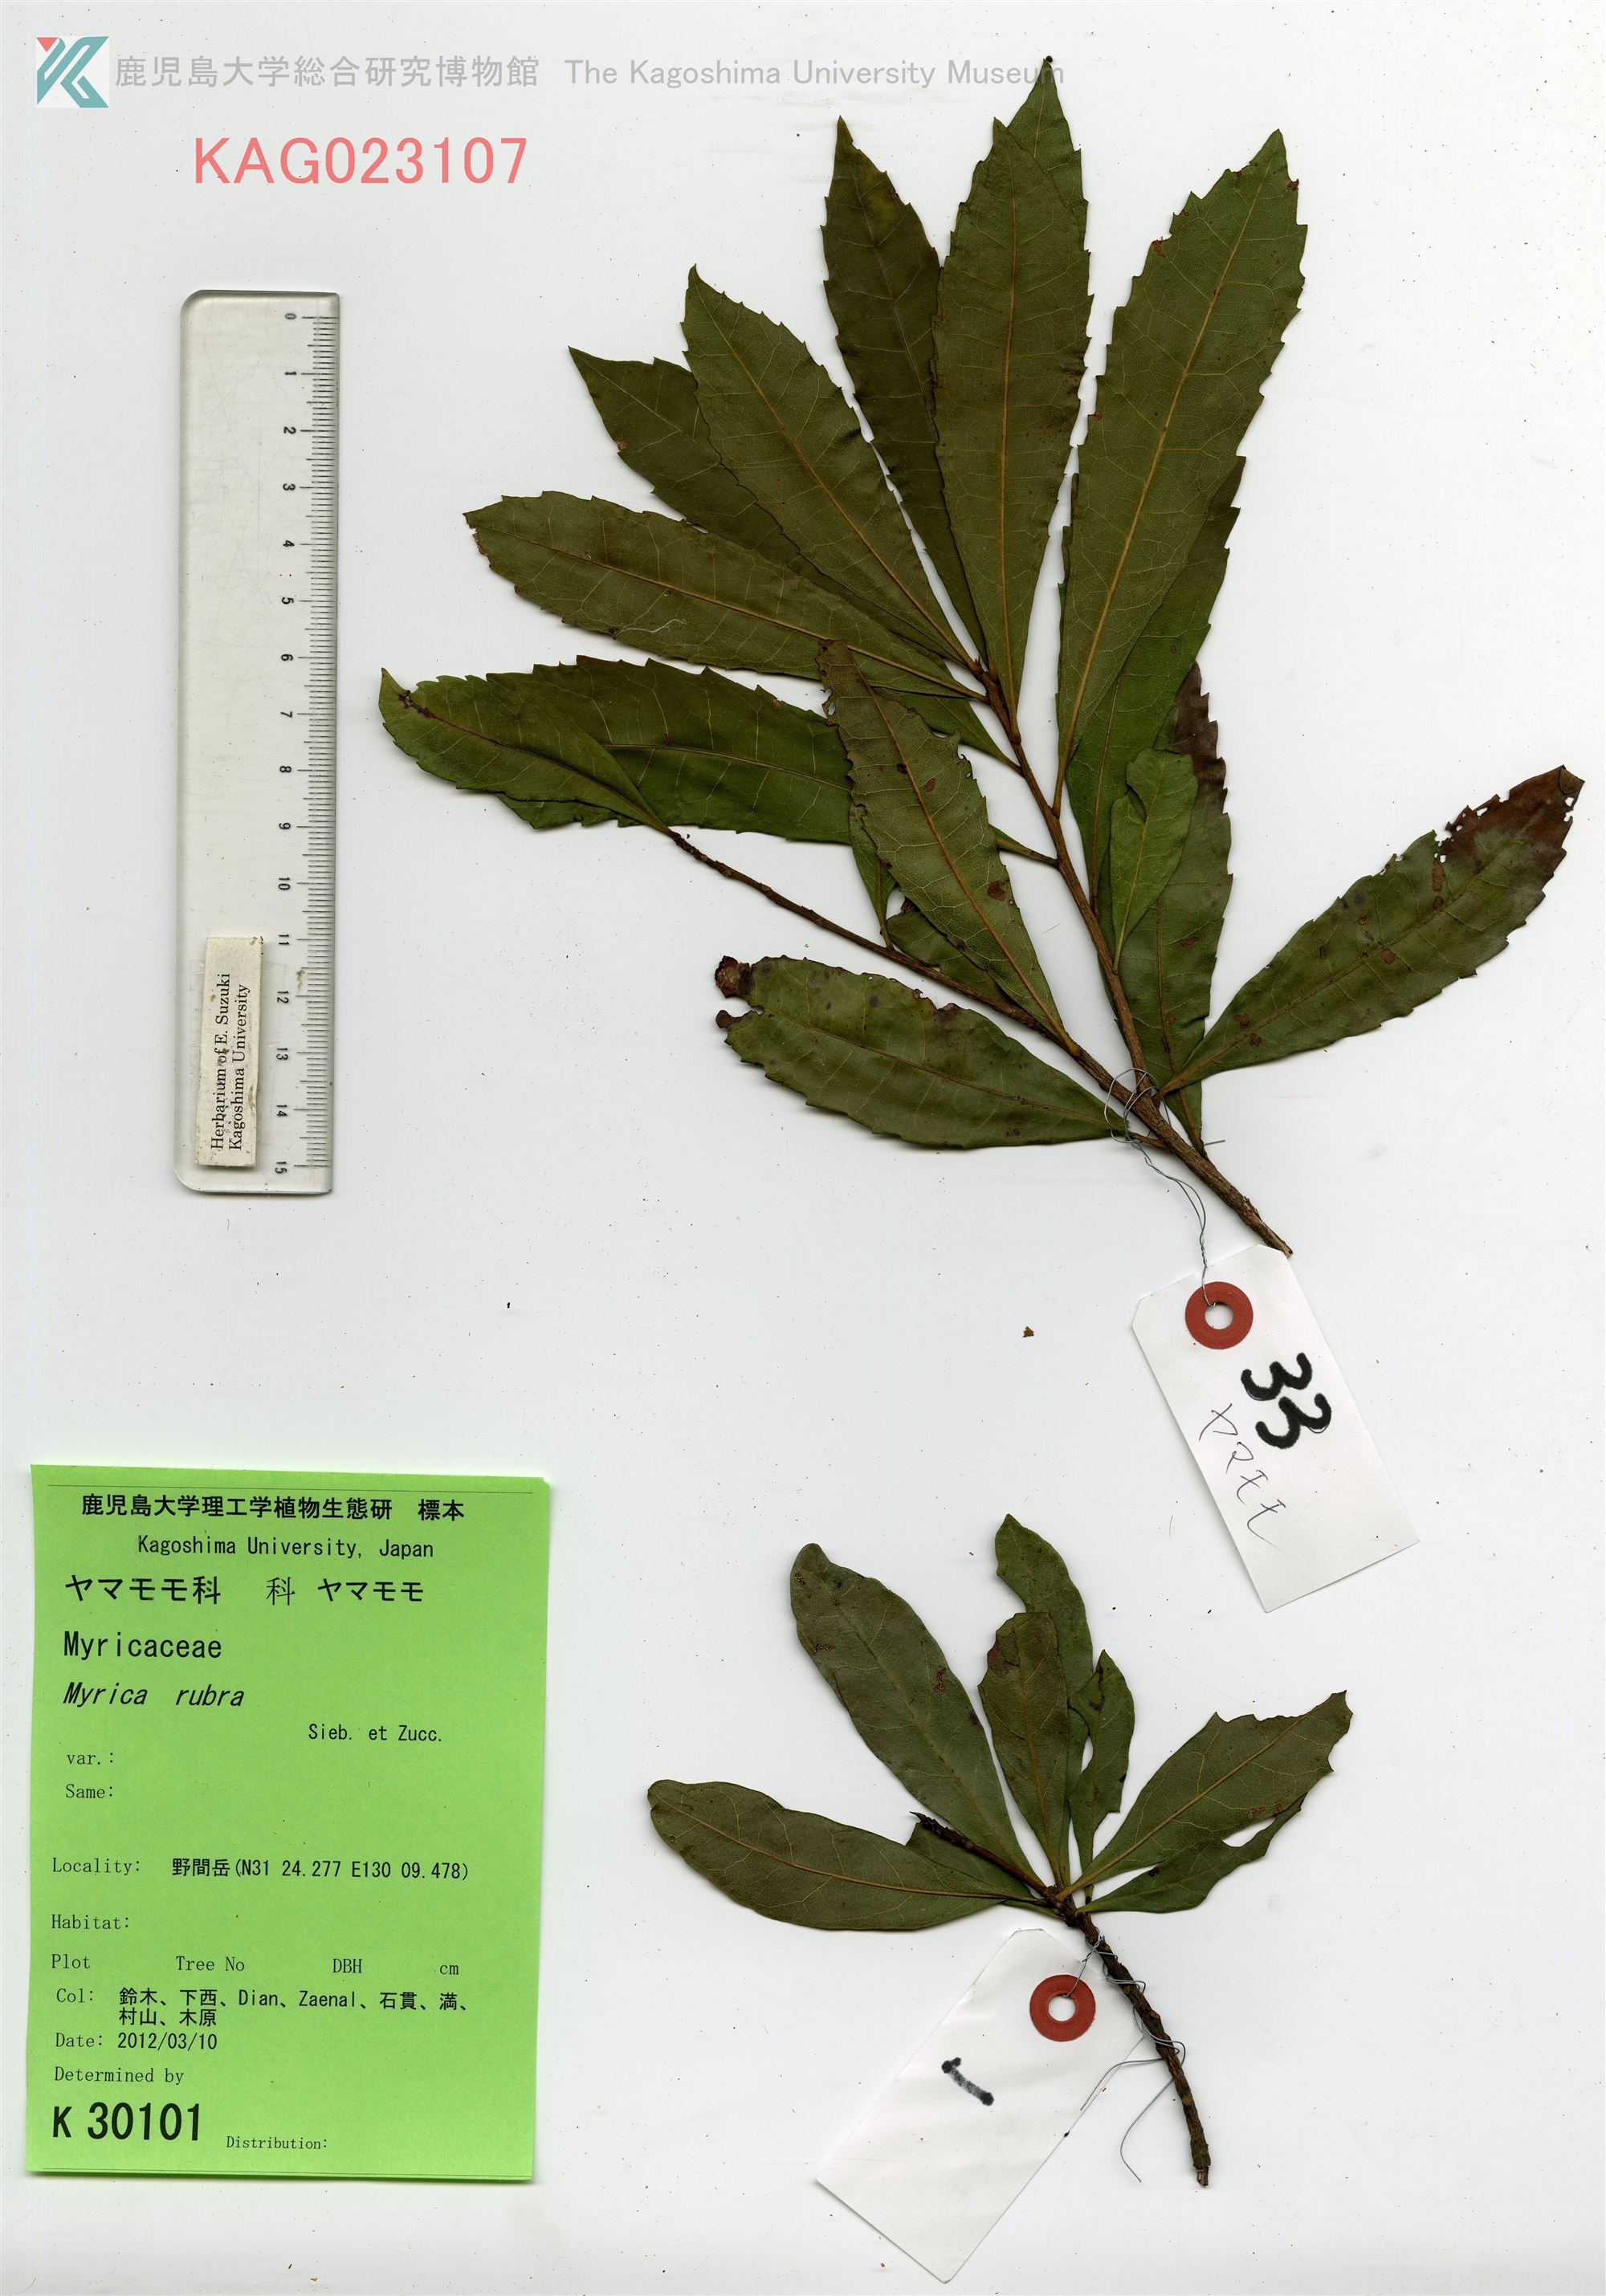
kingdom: Plantae
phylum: Tracheophyta
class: Magnoliopsida
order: Fagales
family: Myricaceae
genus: Morella
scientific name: Morella rubra
